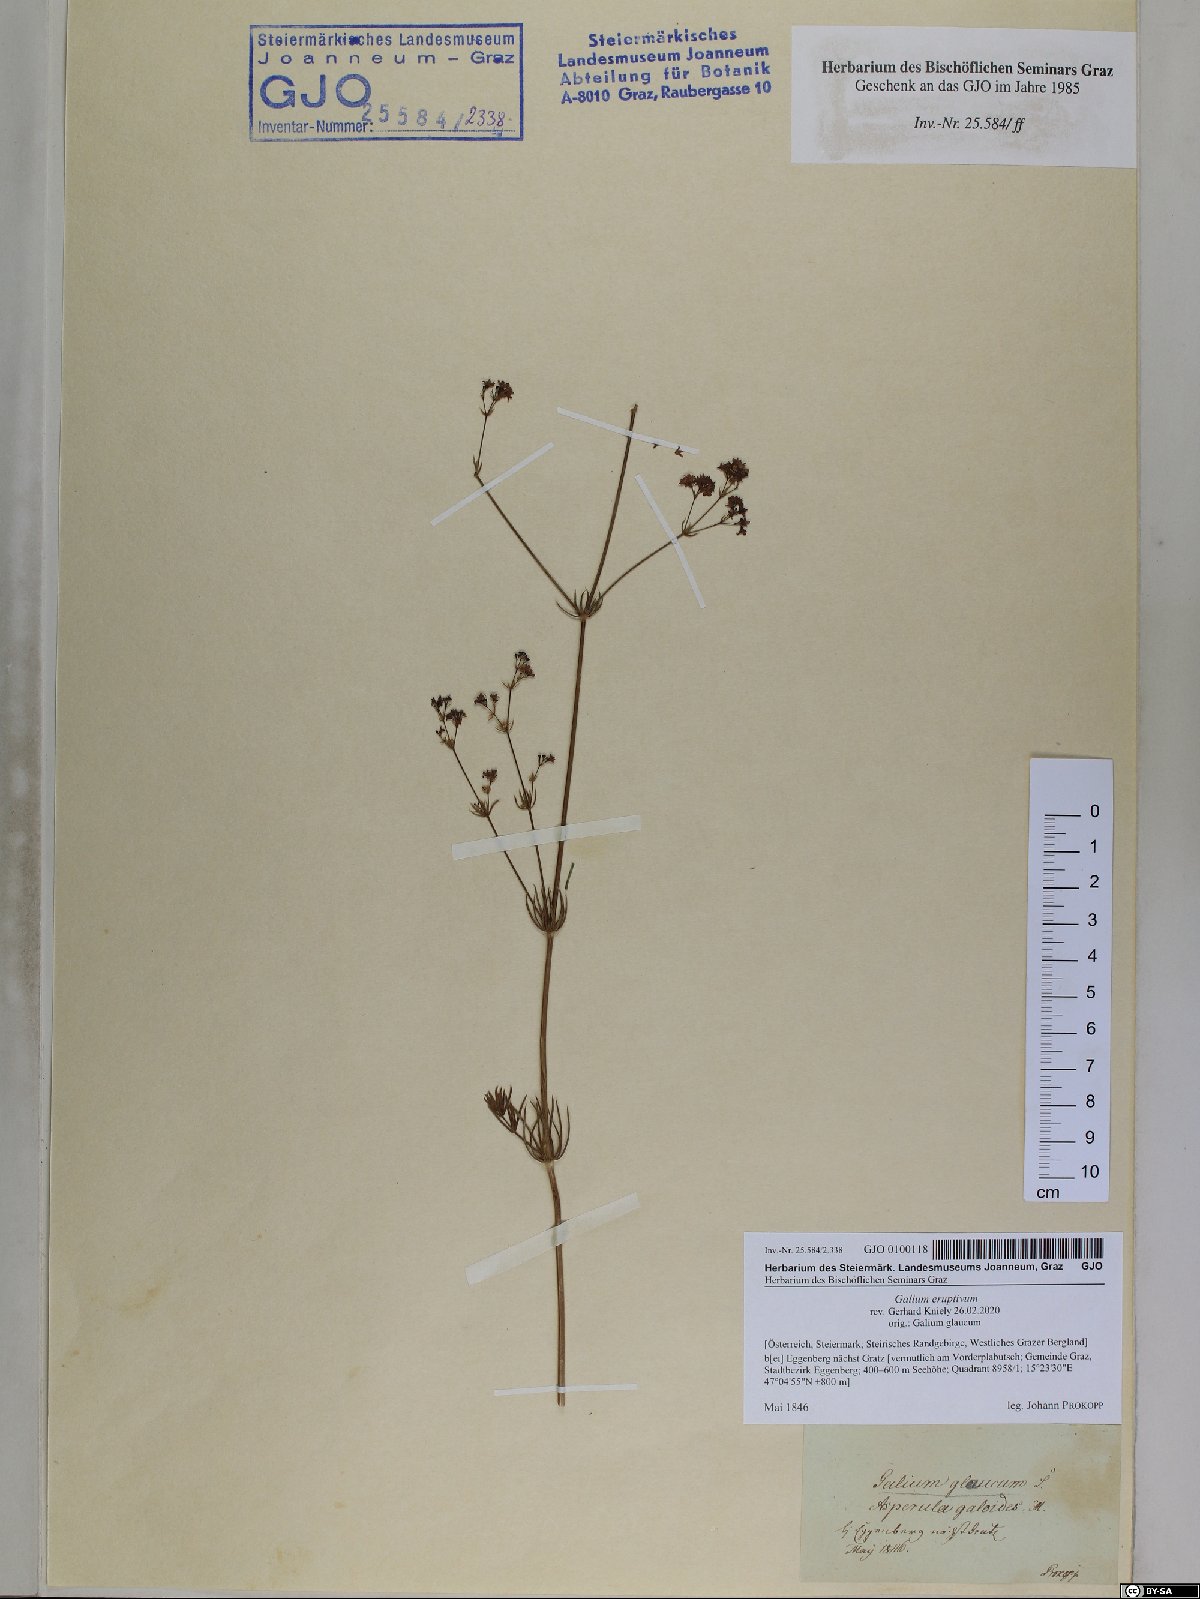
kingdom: Plantae
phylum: Tracheophyta
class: Magnoliopsida
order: Gentianales
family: Rubiaceae
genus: Galium
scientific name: Galium eruptivum
